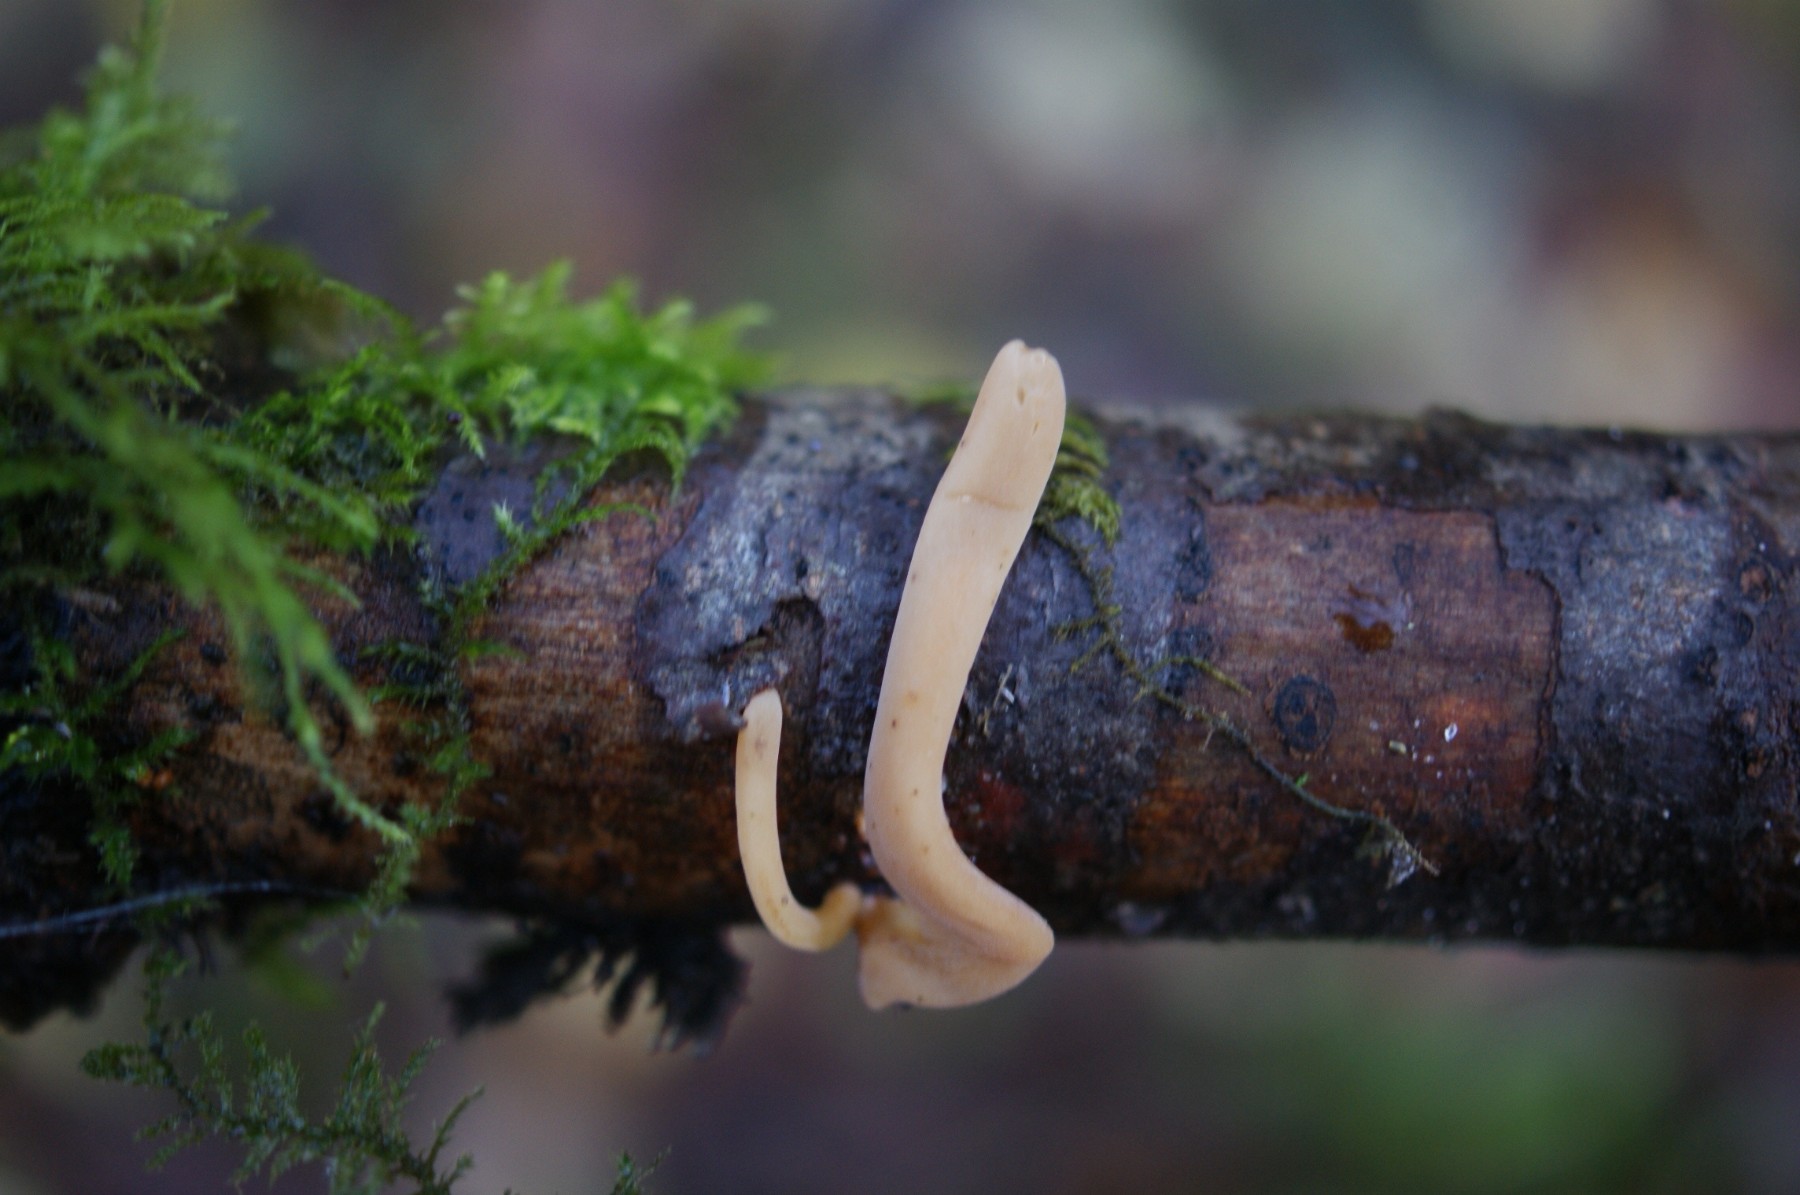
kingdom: Fungi
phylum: Basidiomycota
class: Agaricomycetes
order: Agaricales
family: Typhulaceae
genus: Typhula
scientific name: Typhula contorta
